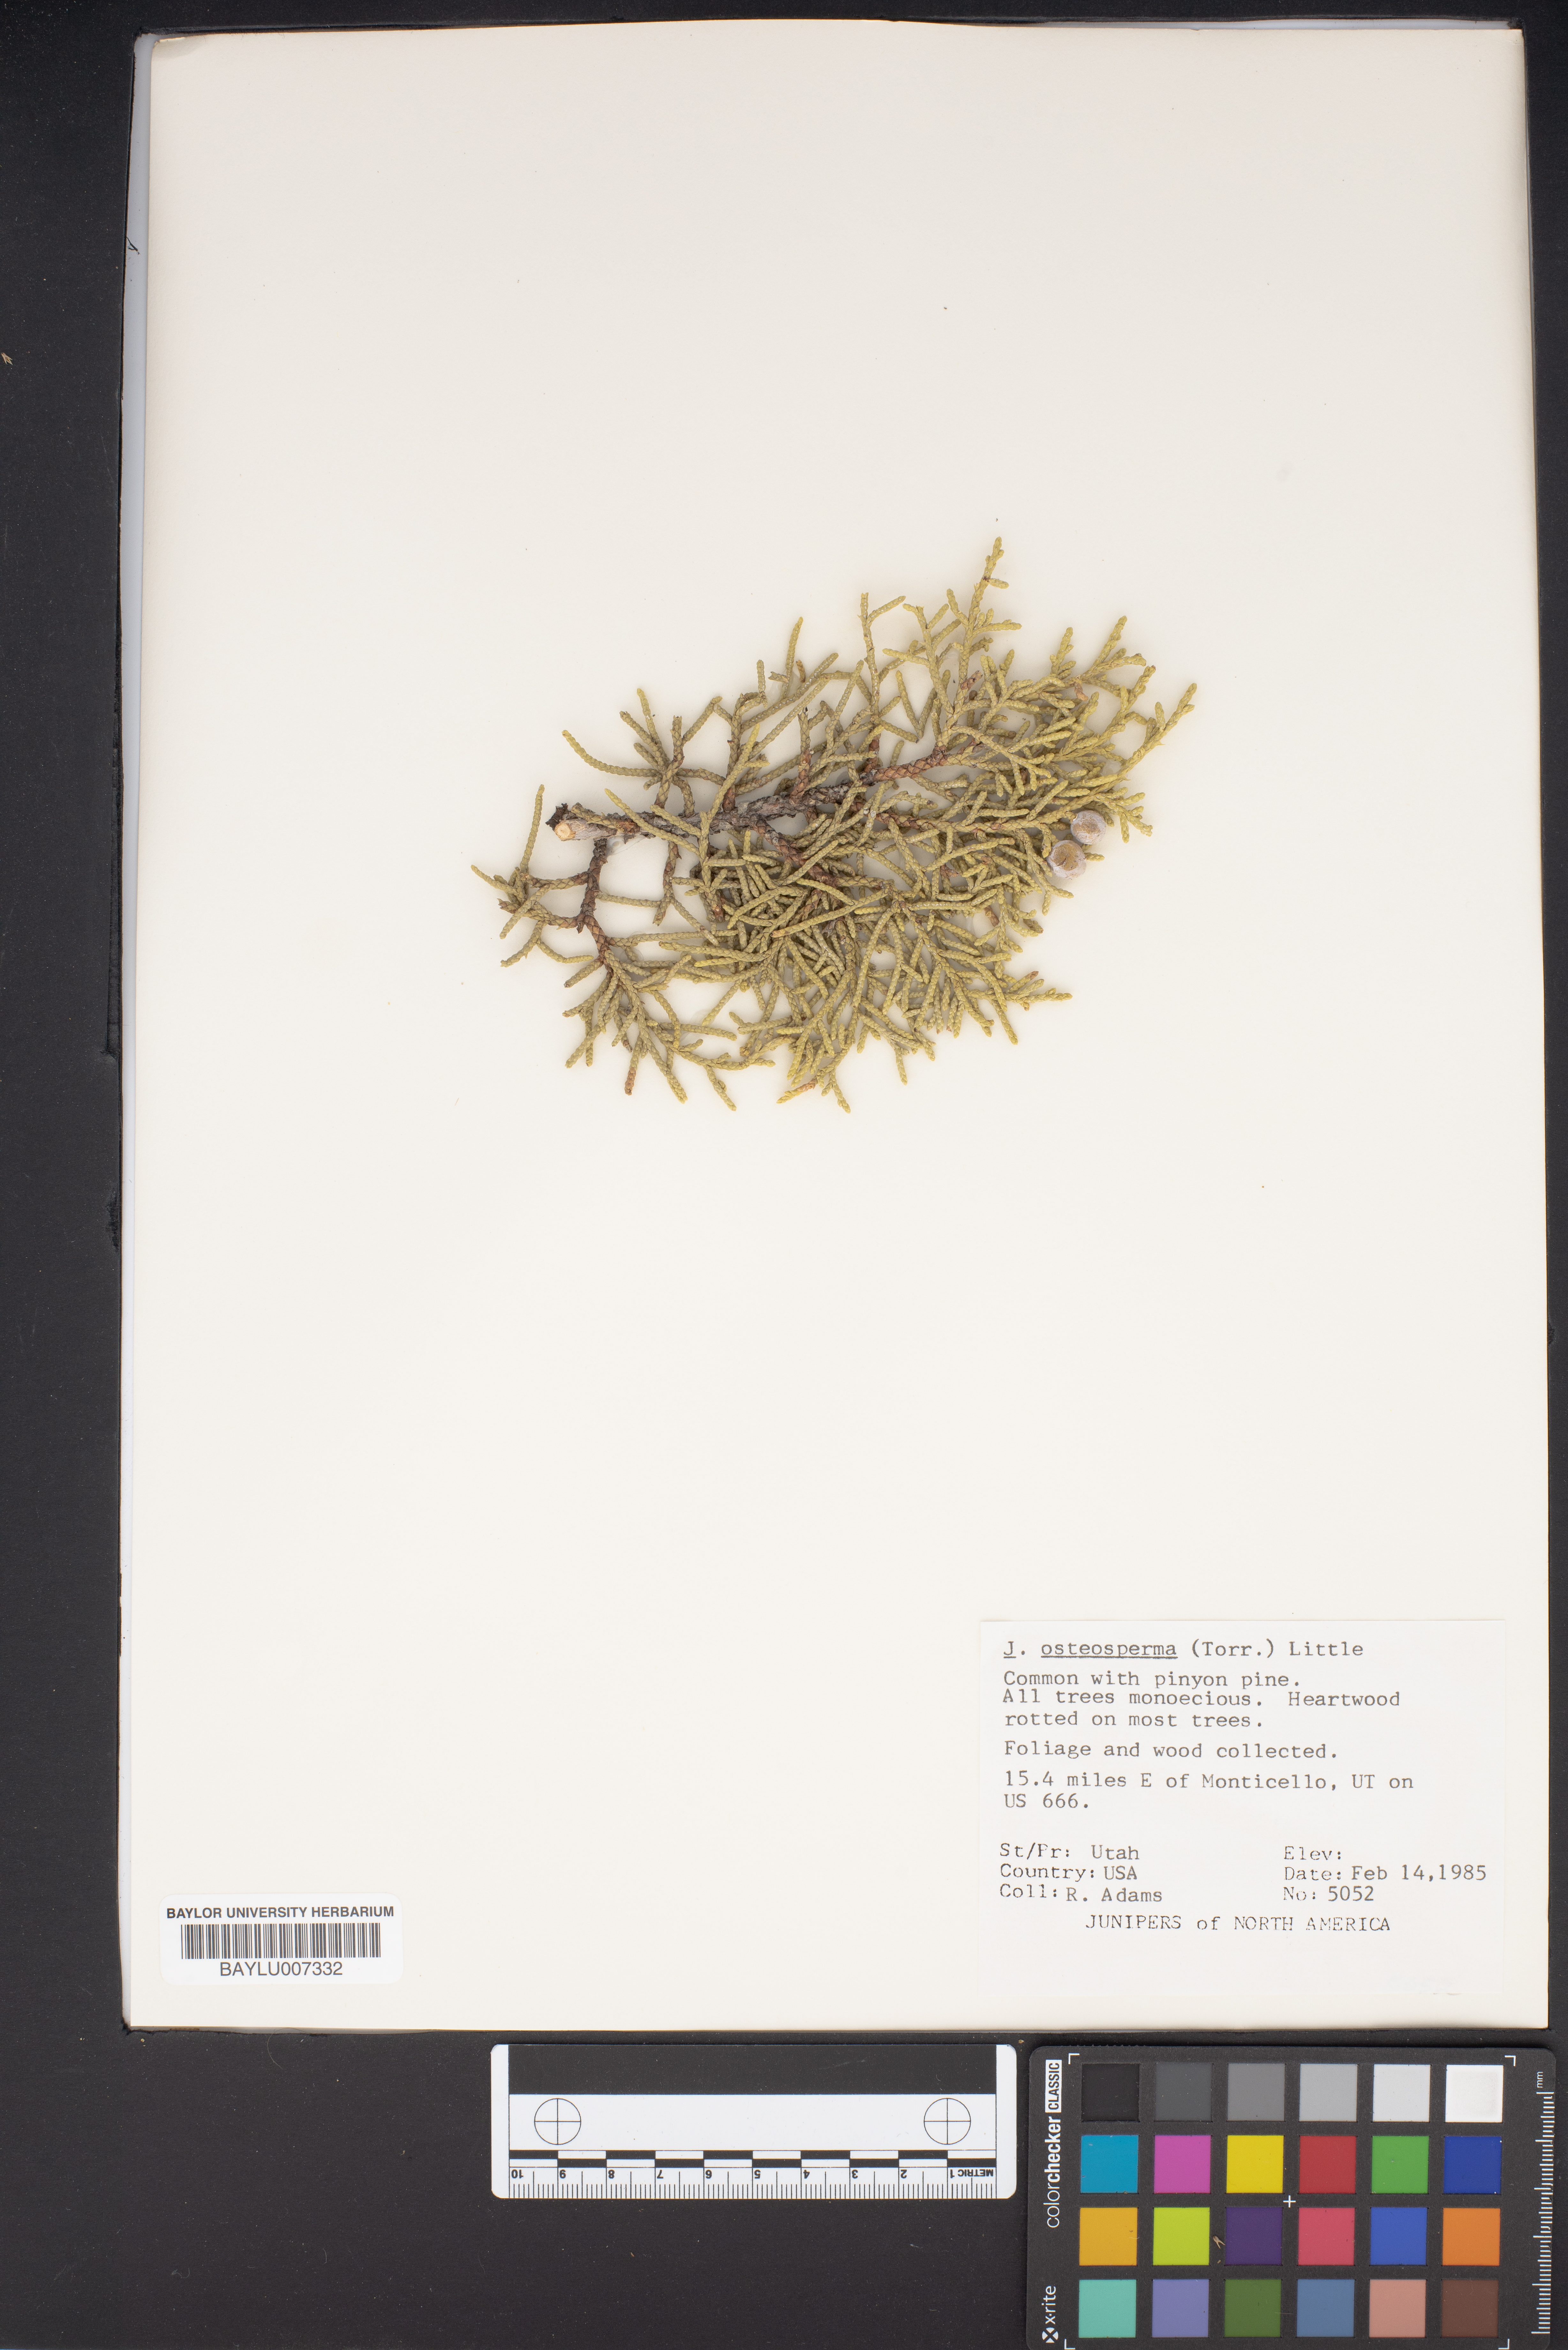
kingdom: Plantae
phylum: Tracheophyta
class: Pinopsida
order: Pinales
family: Cupressaceae
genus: Juniperus
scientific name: Juniperus osteosperma
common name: Utah juniper
